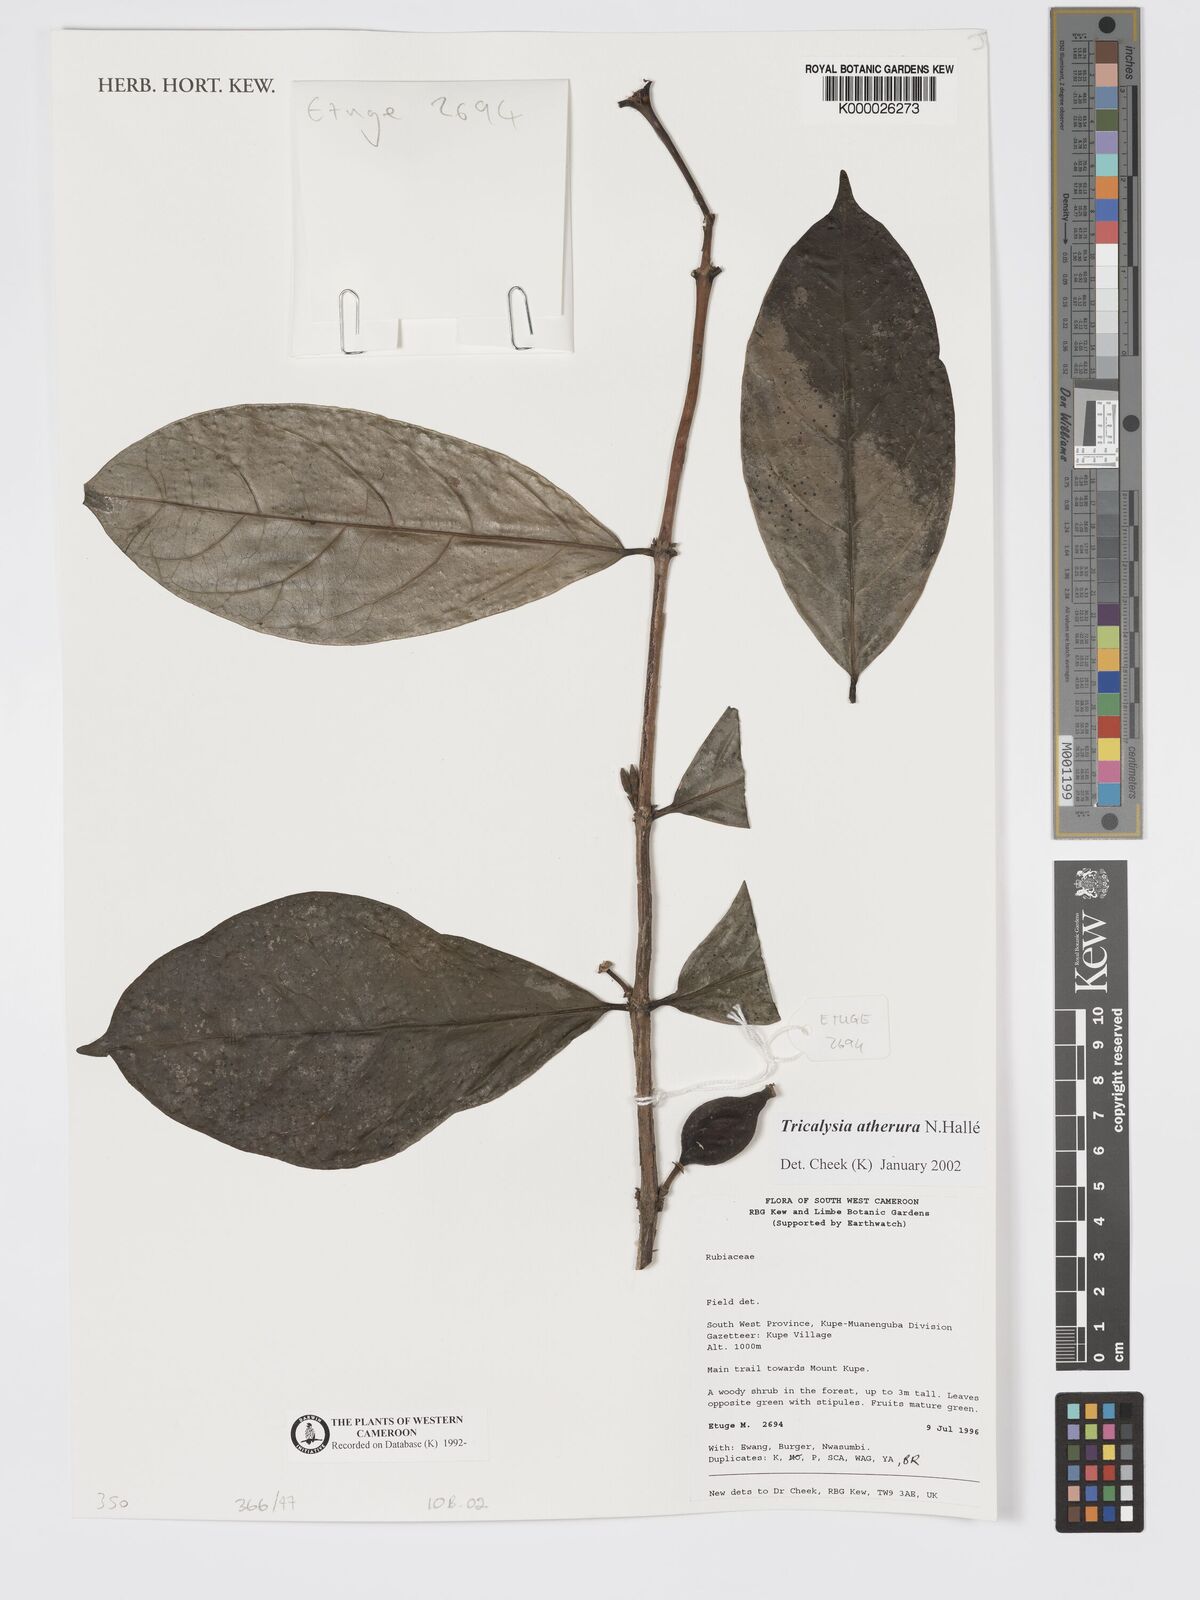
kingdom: Plantae
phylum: Tracheophyta
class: Magnoliopsida
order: Gentianales
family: Rubiaceae
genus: Tricalysia
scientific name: Tricalysia
